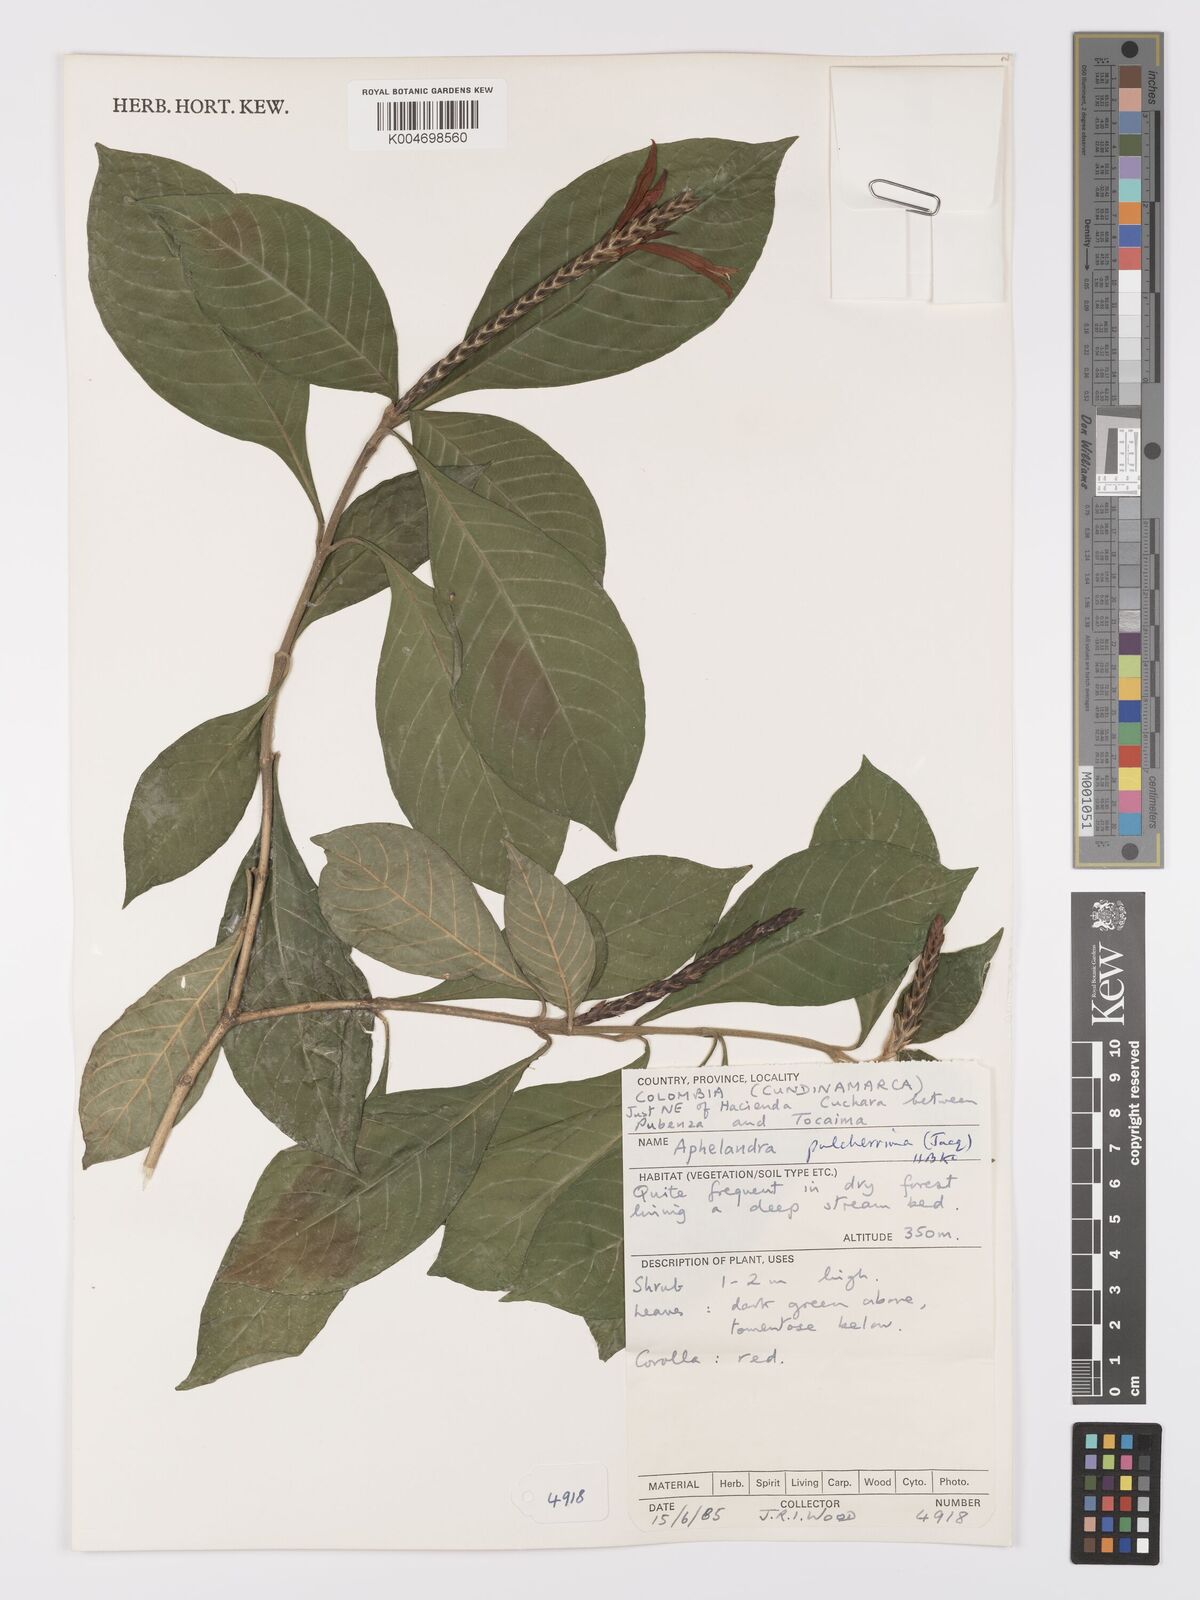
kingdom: Plantae
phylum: Tracheophyta
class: Magnoliopsida
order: Lamiales
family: Acanthaceae
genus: Aphelandra
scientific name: Aphelandra glabrata
